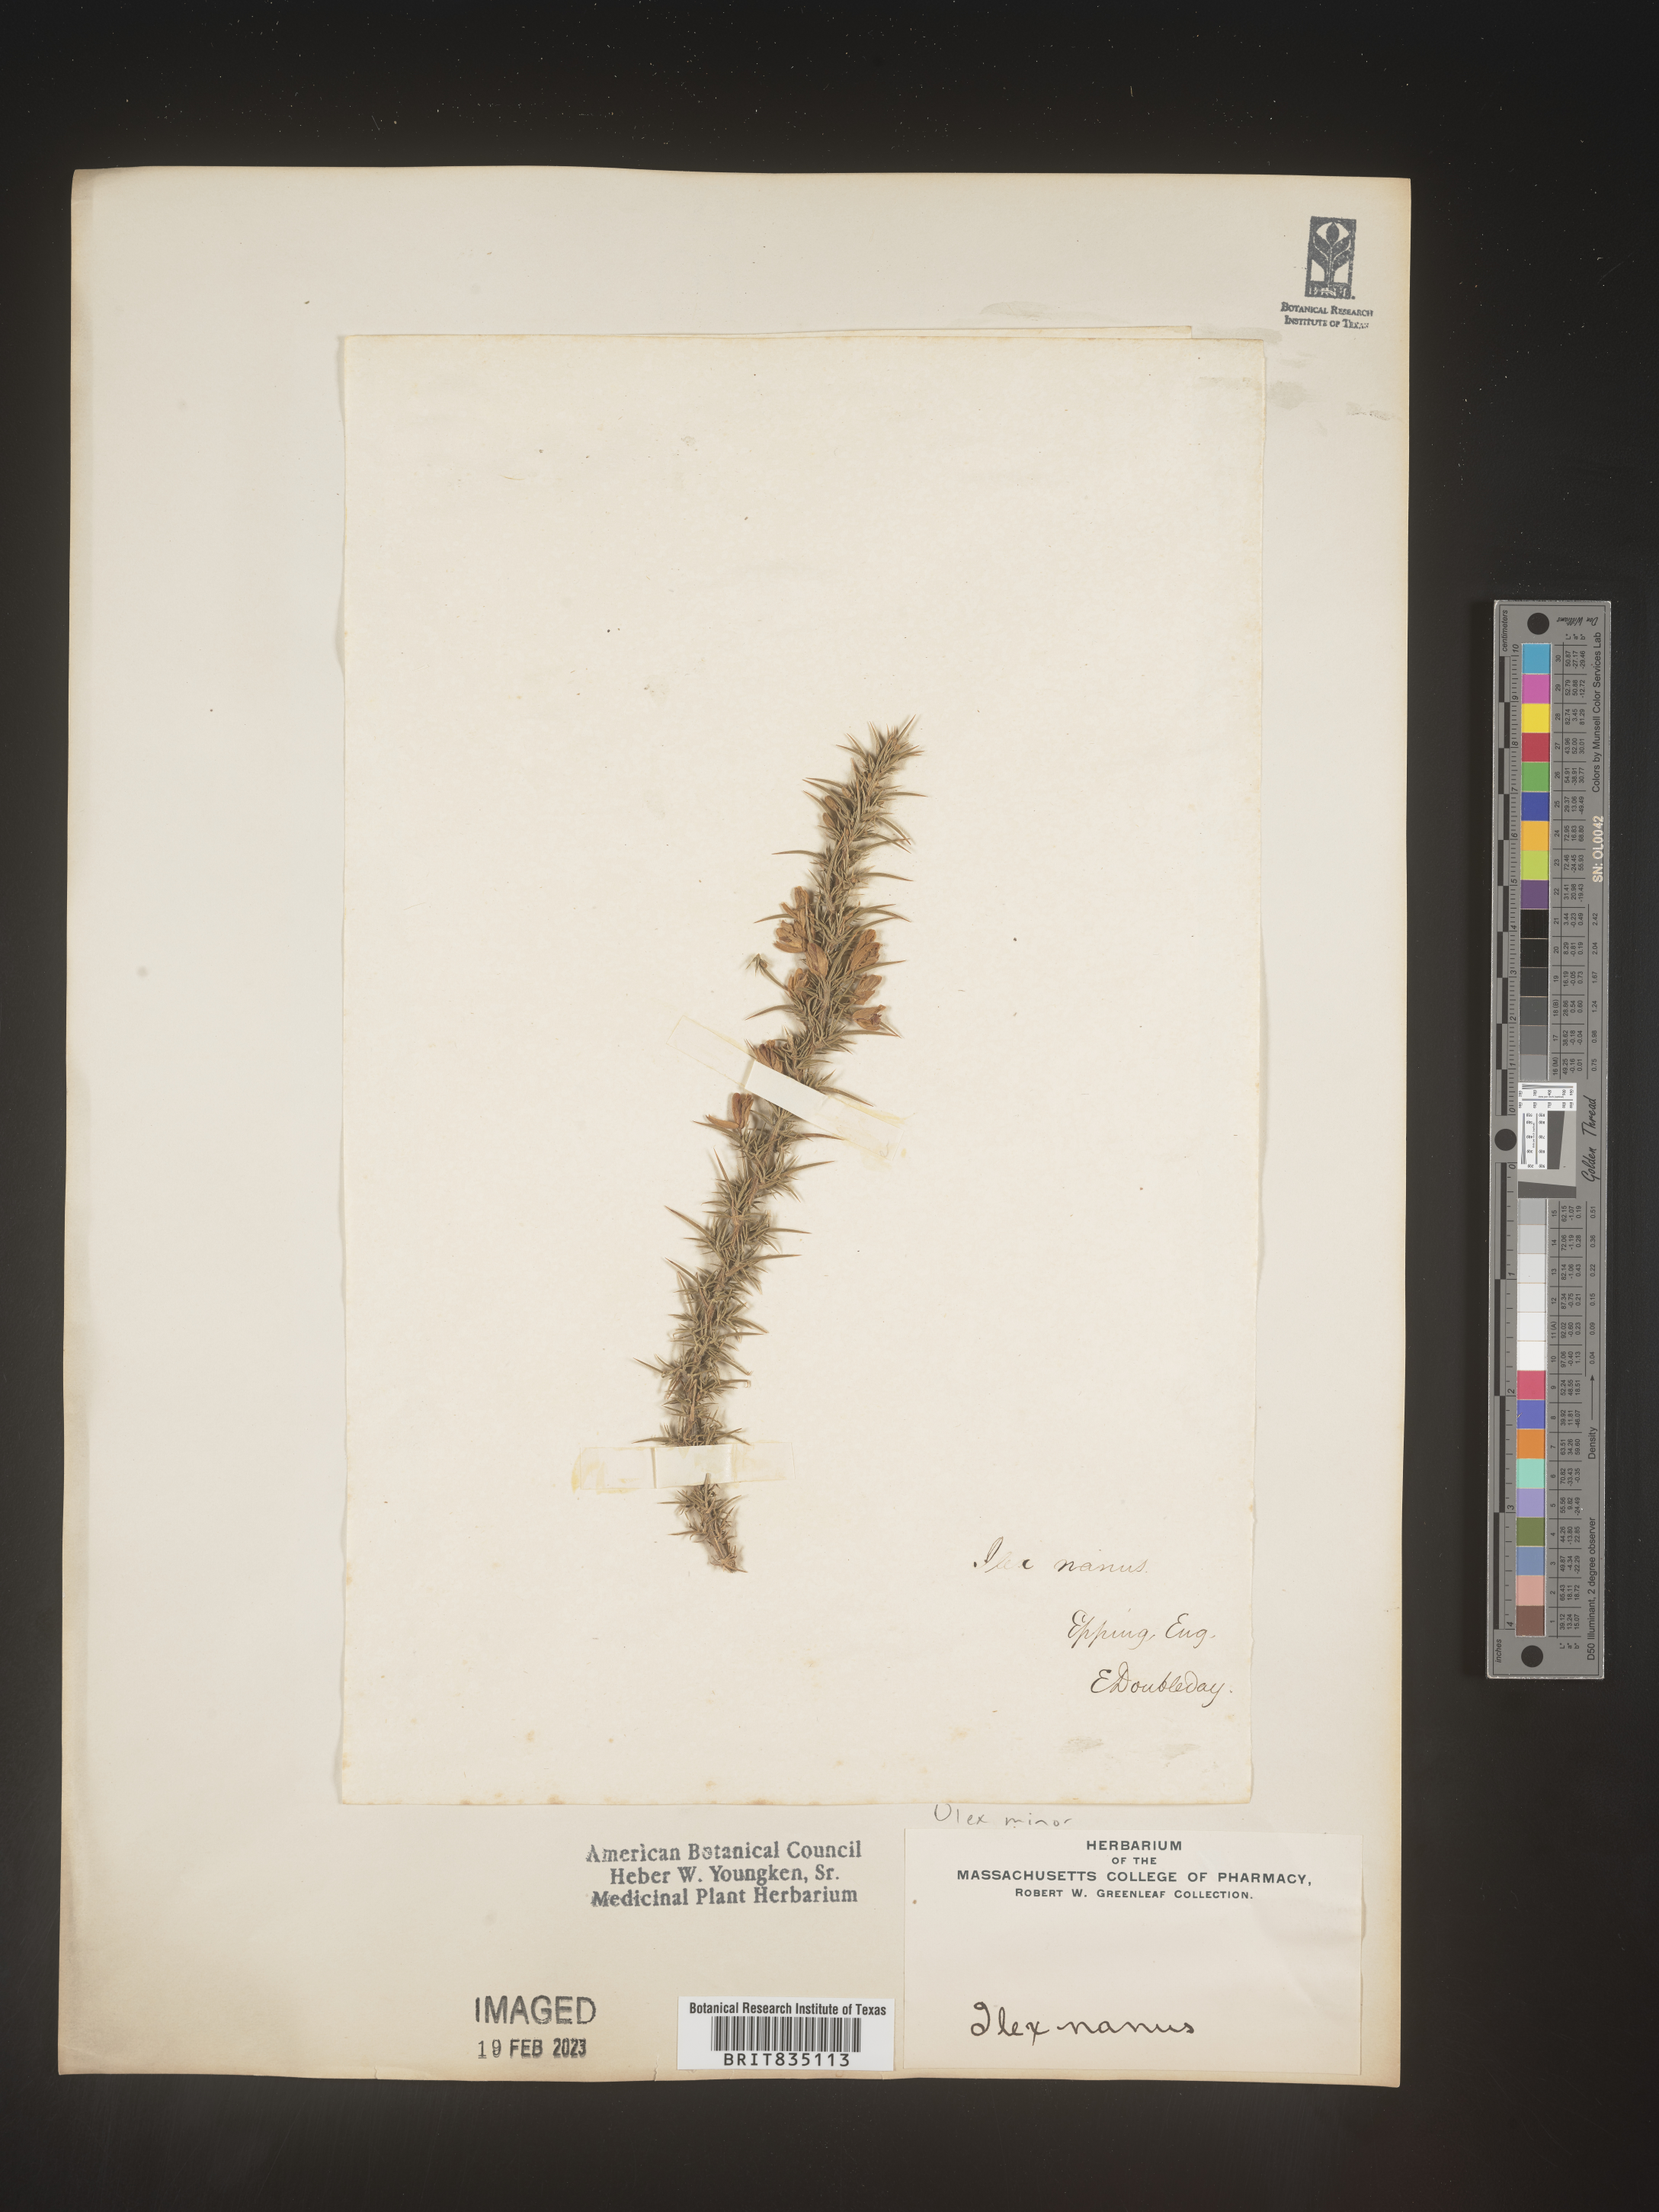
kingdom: Plantae
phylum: Tracheophyta
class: Magnoliopsida
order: Fabales
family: Fabaceae
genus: Ulex
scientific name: Ulex
